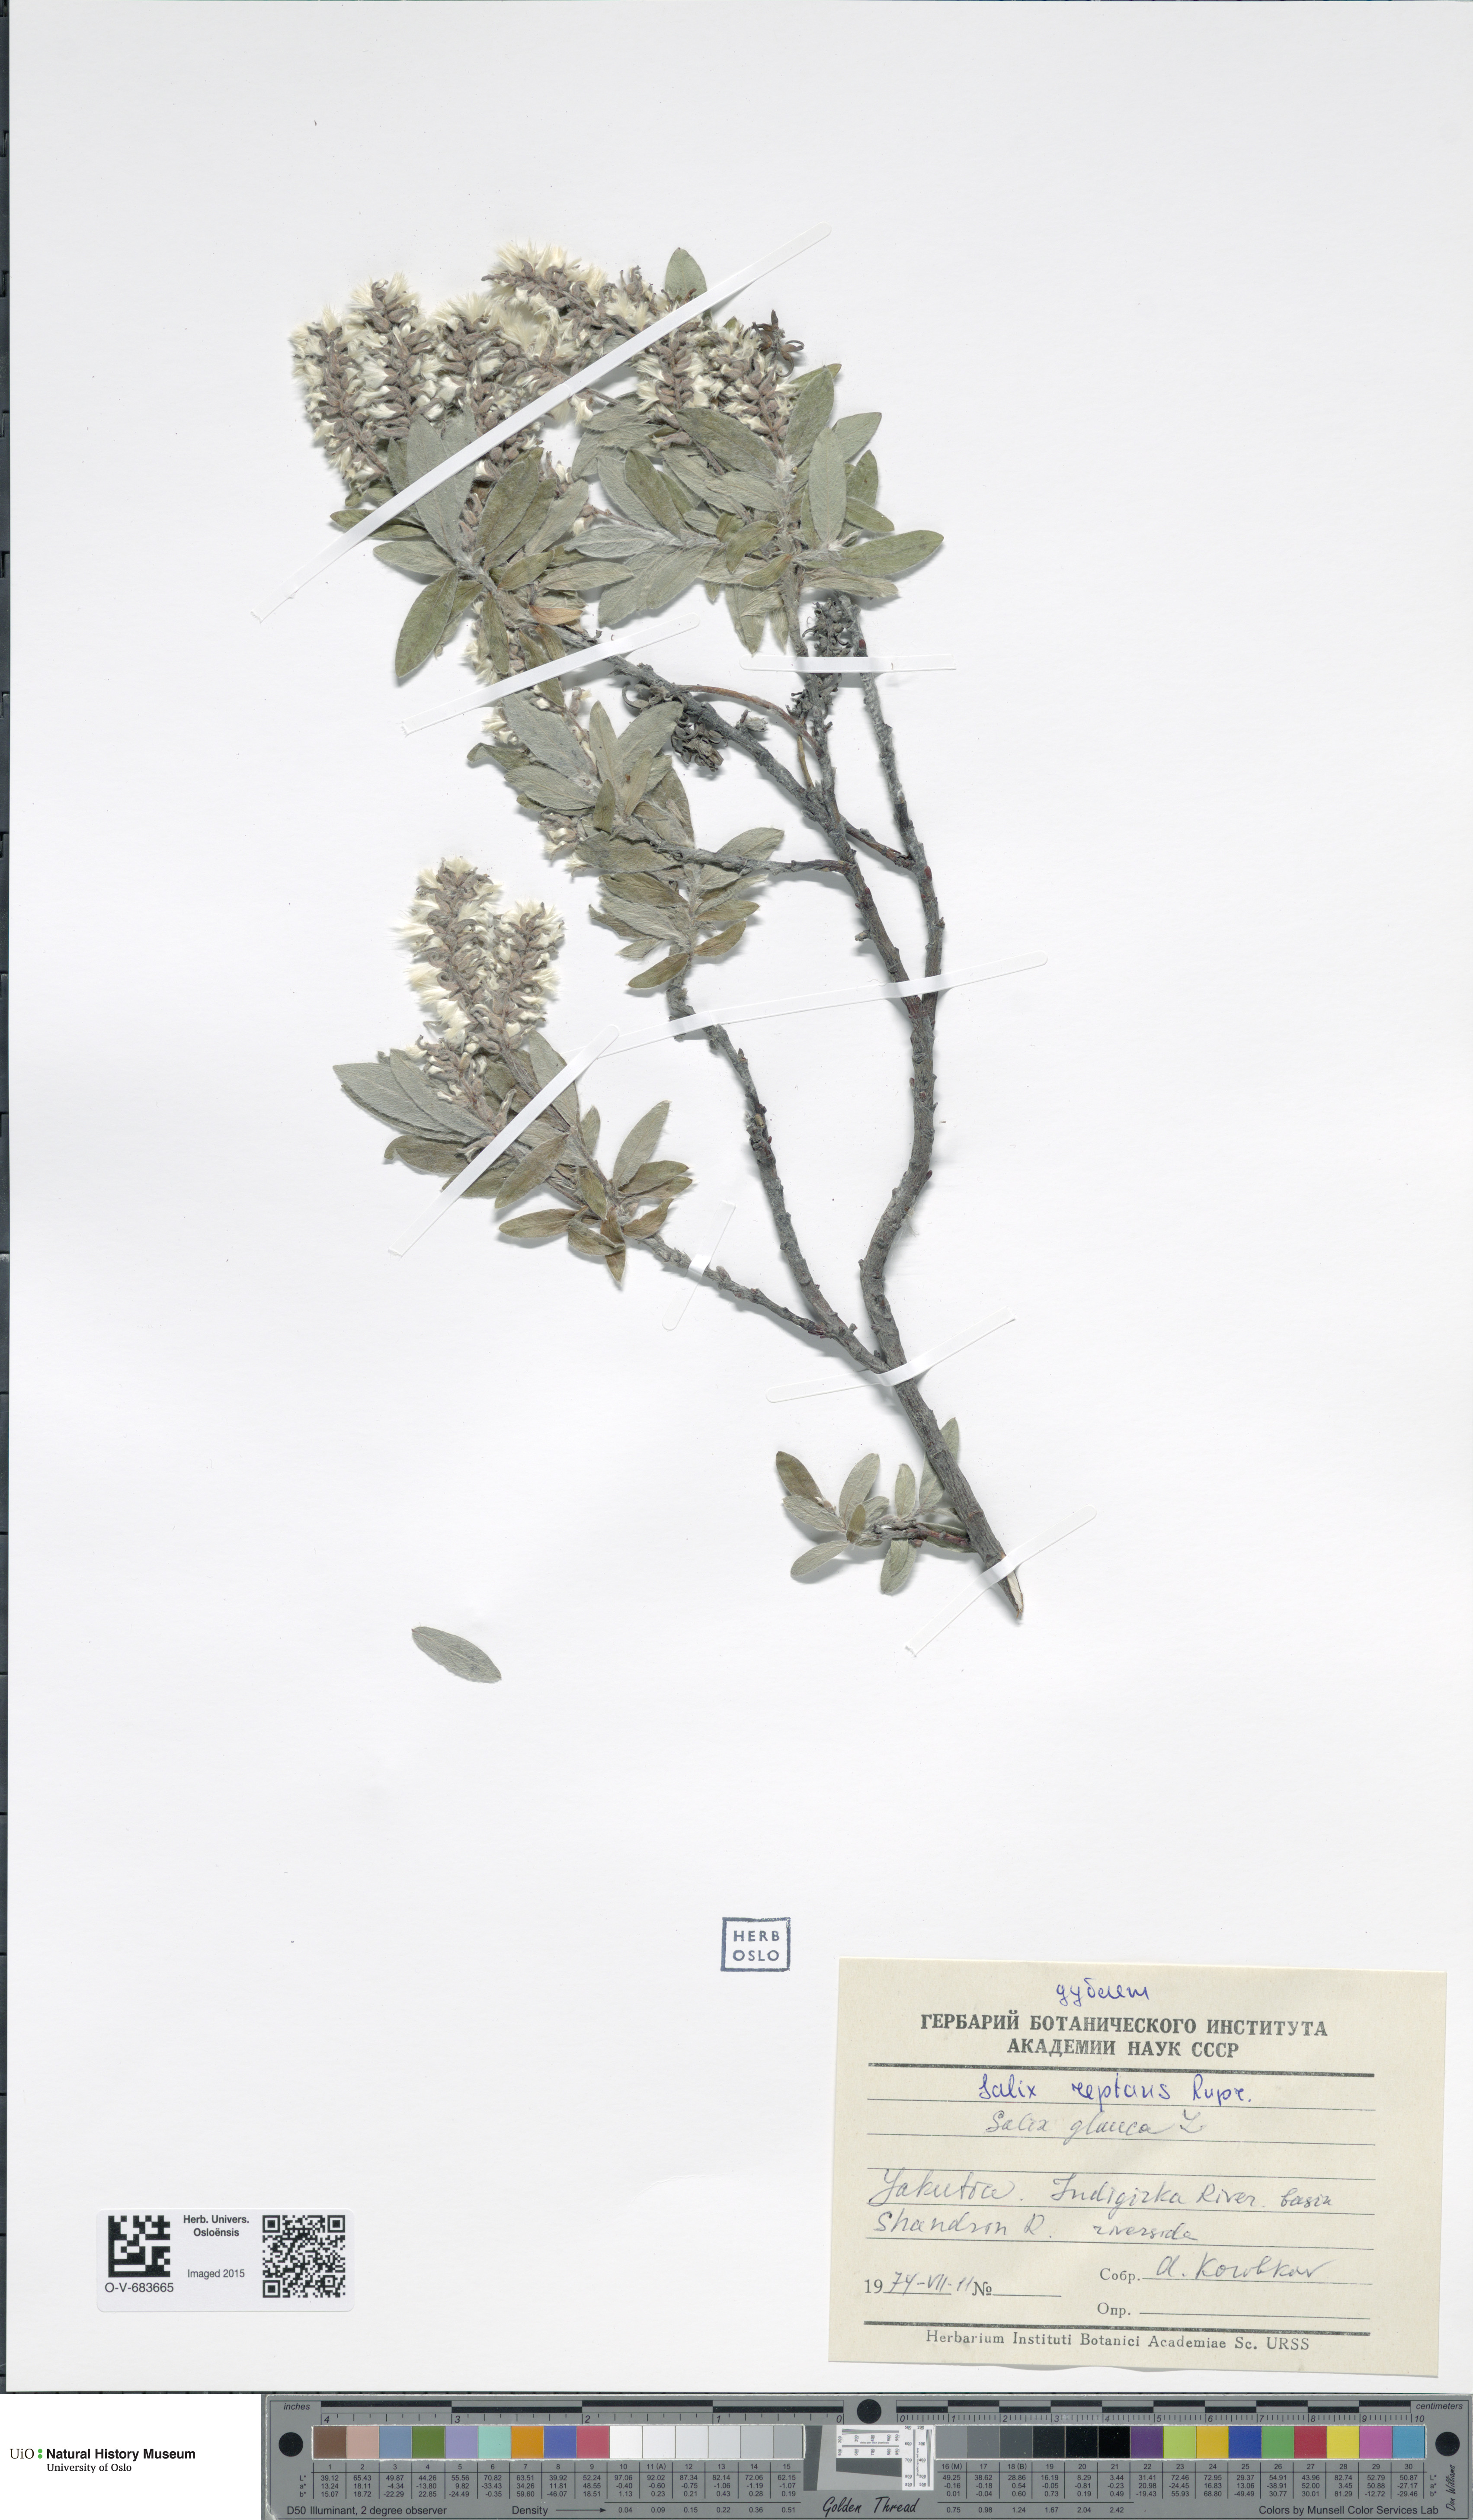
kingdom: Plantae
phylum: Tracheophyta
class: Magnoliopsida
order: Malpighiales
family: Salicaceae
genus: Salix
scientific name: Salix reptans
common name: Arctic creeping willow
